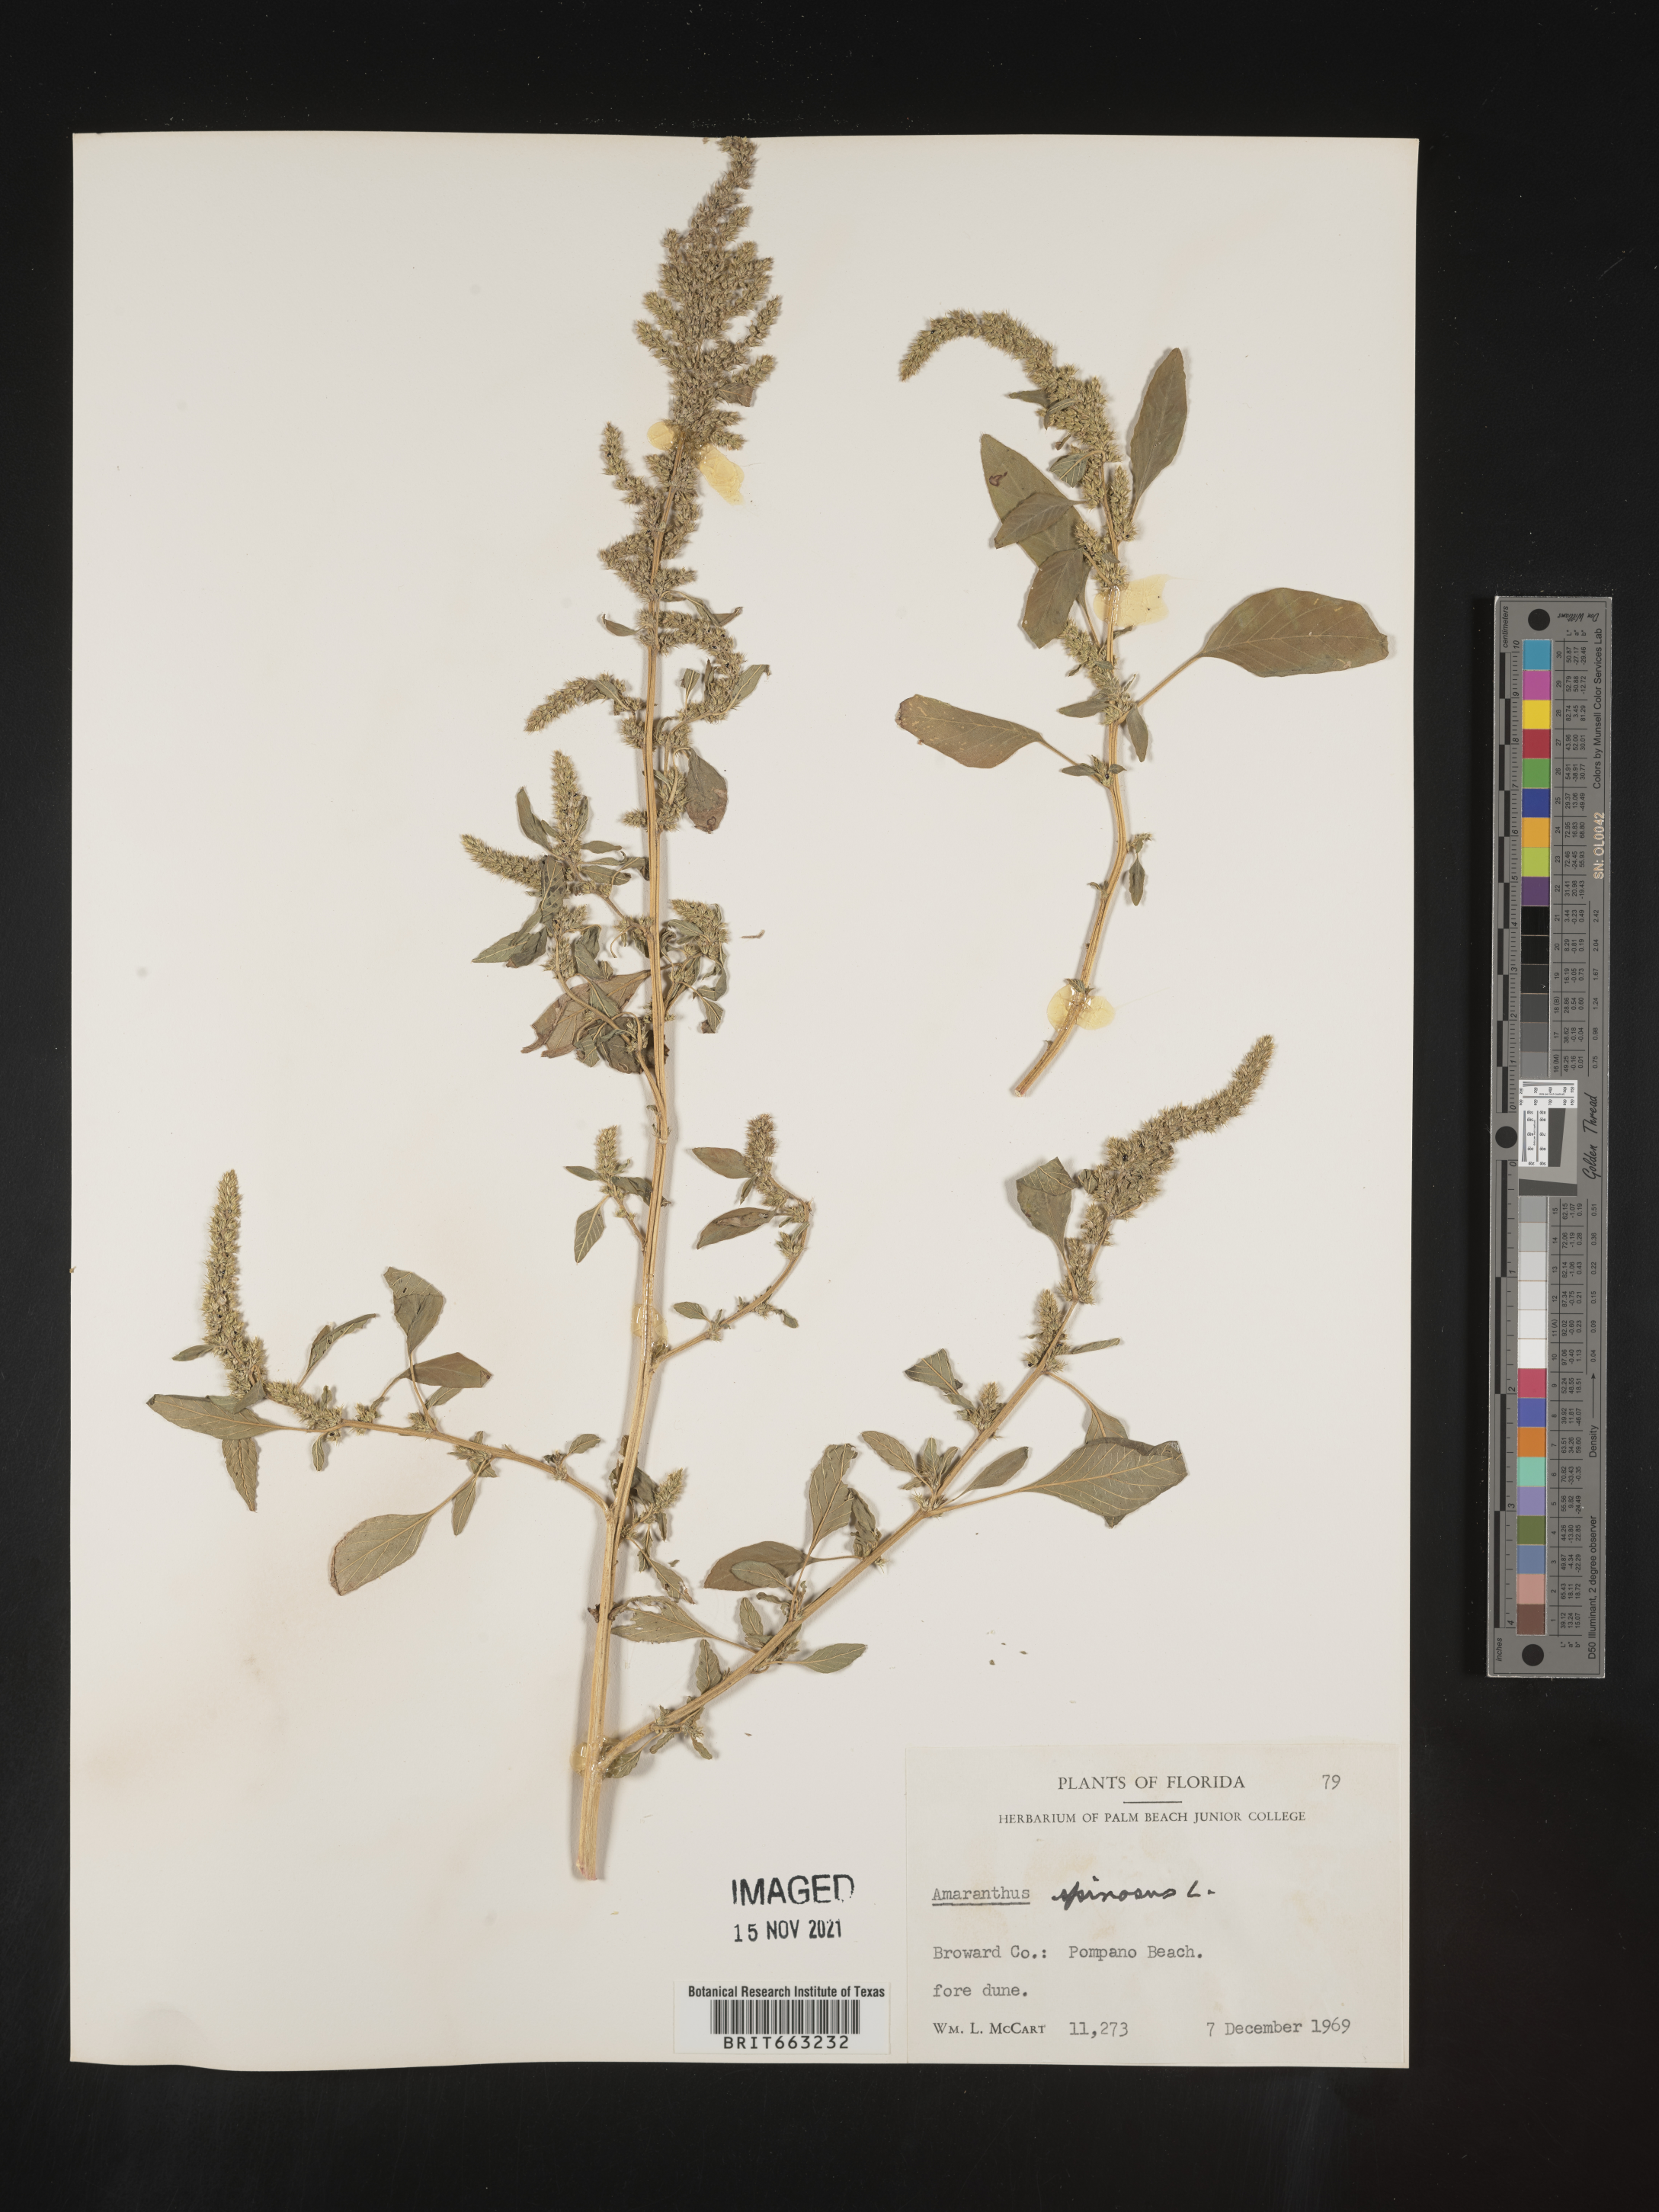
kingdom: Plantae
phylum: Tracheophyta
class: Magnoliopsida
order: Caryophyllales
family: Amaranthaceae
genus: Amaranthus
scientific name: Amaranthus spinosus
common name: Spiny amaranth
